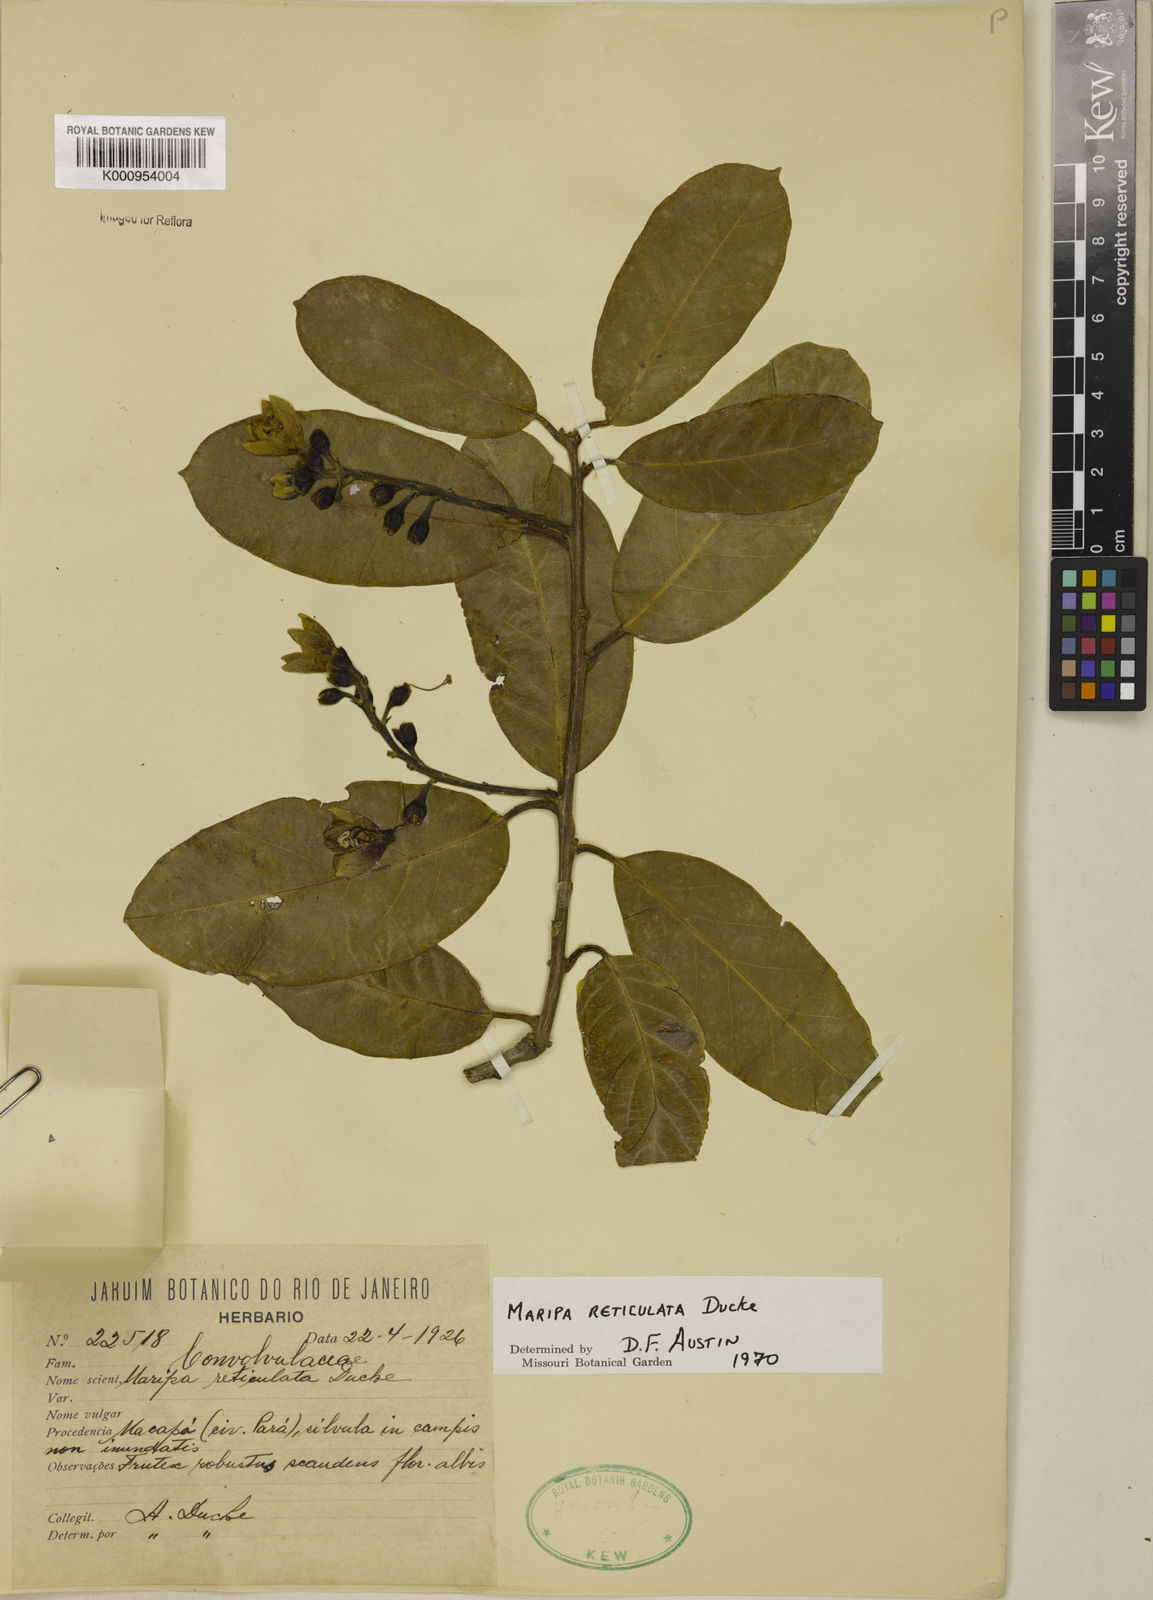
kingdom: Plantae
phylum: Tracheophyta
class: Magnoliopsida
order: Solanales
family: Convolvulaceae
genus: Maripa
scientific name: Maripa reticulata
